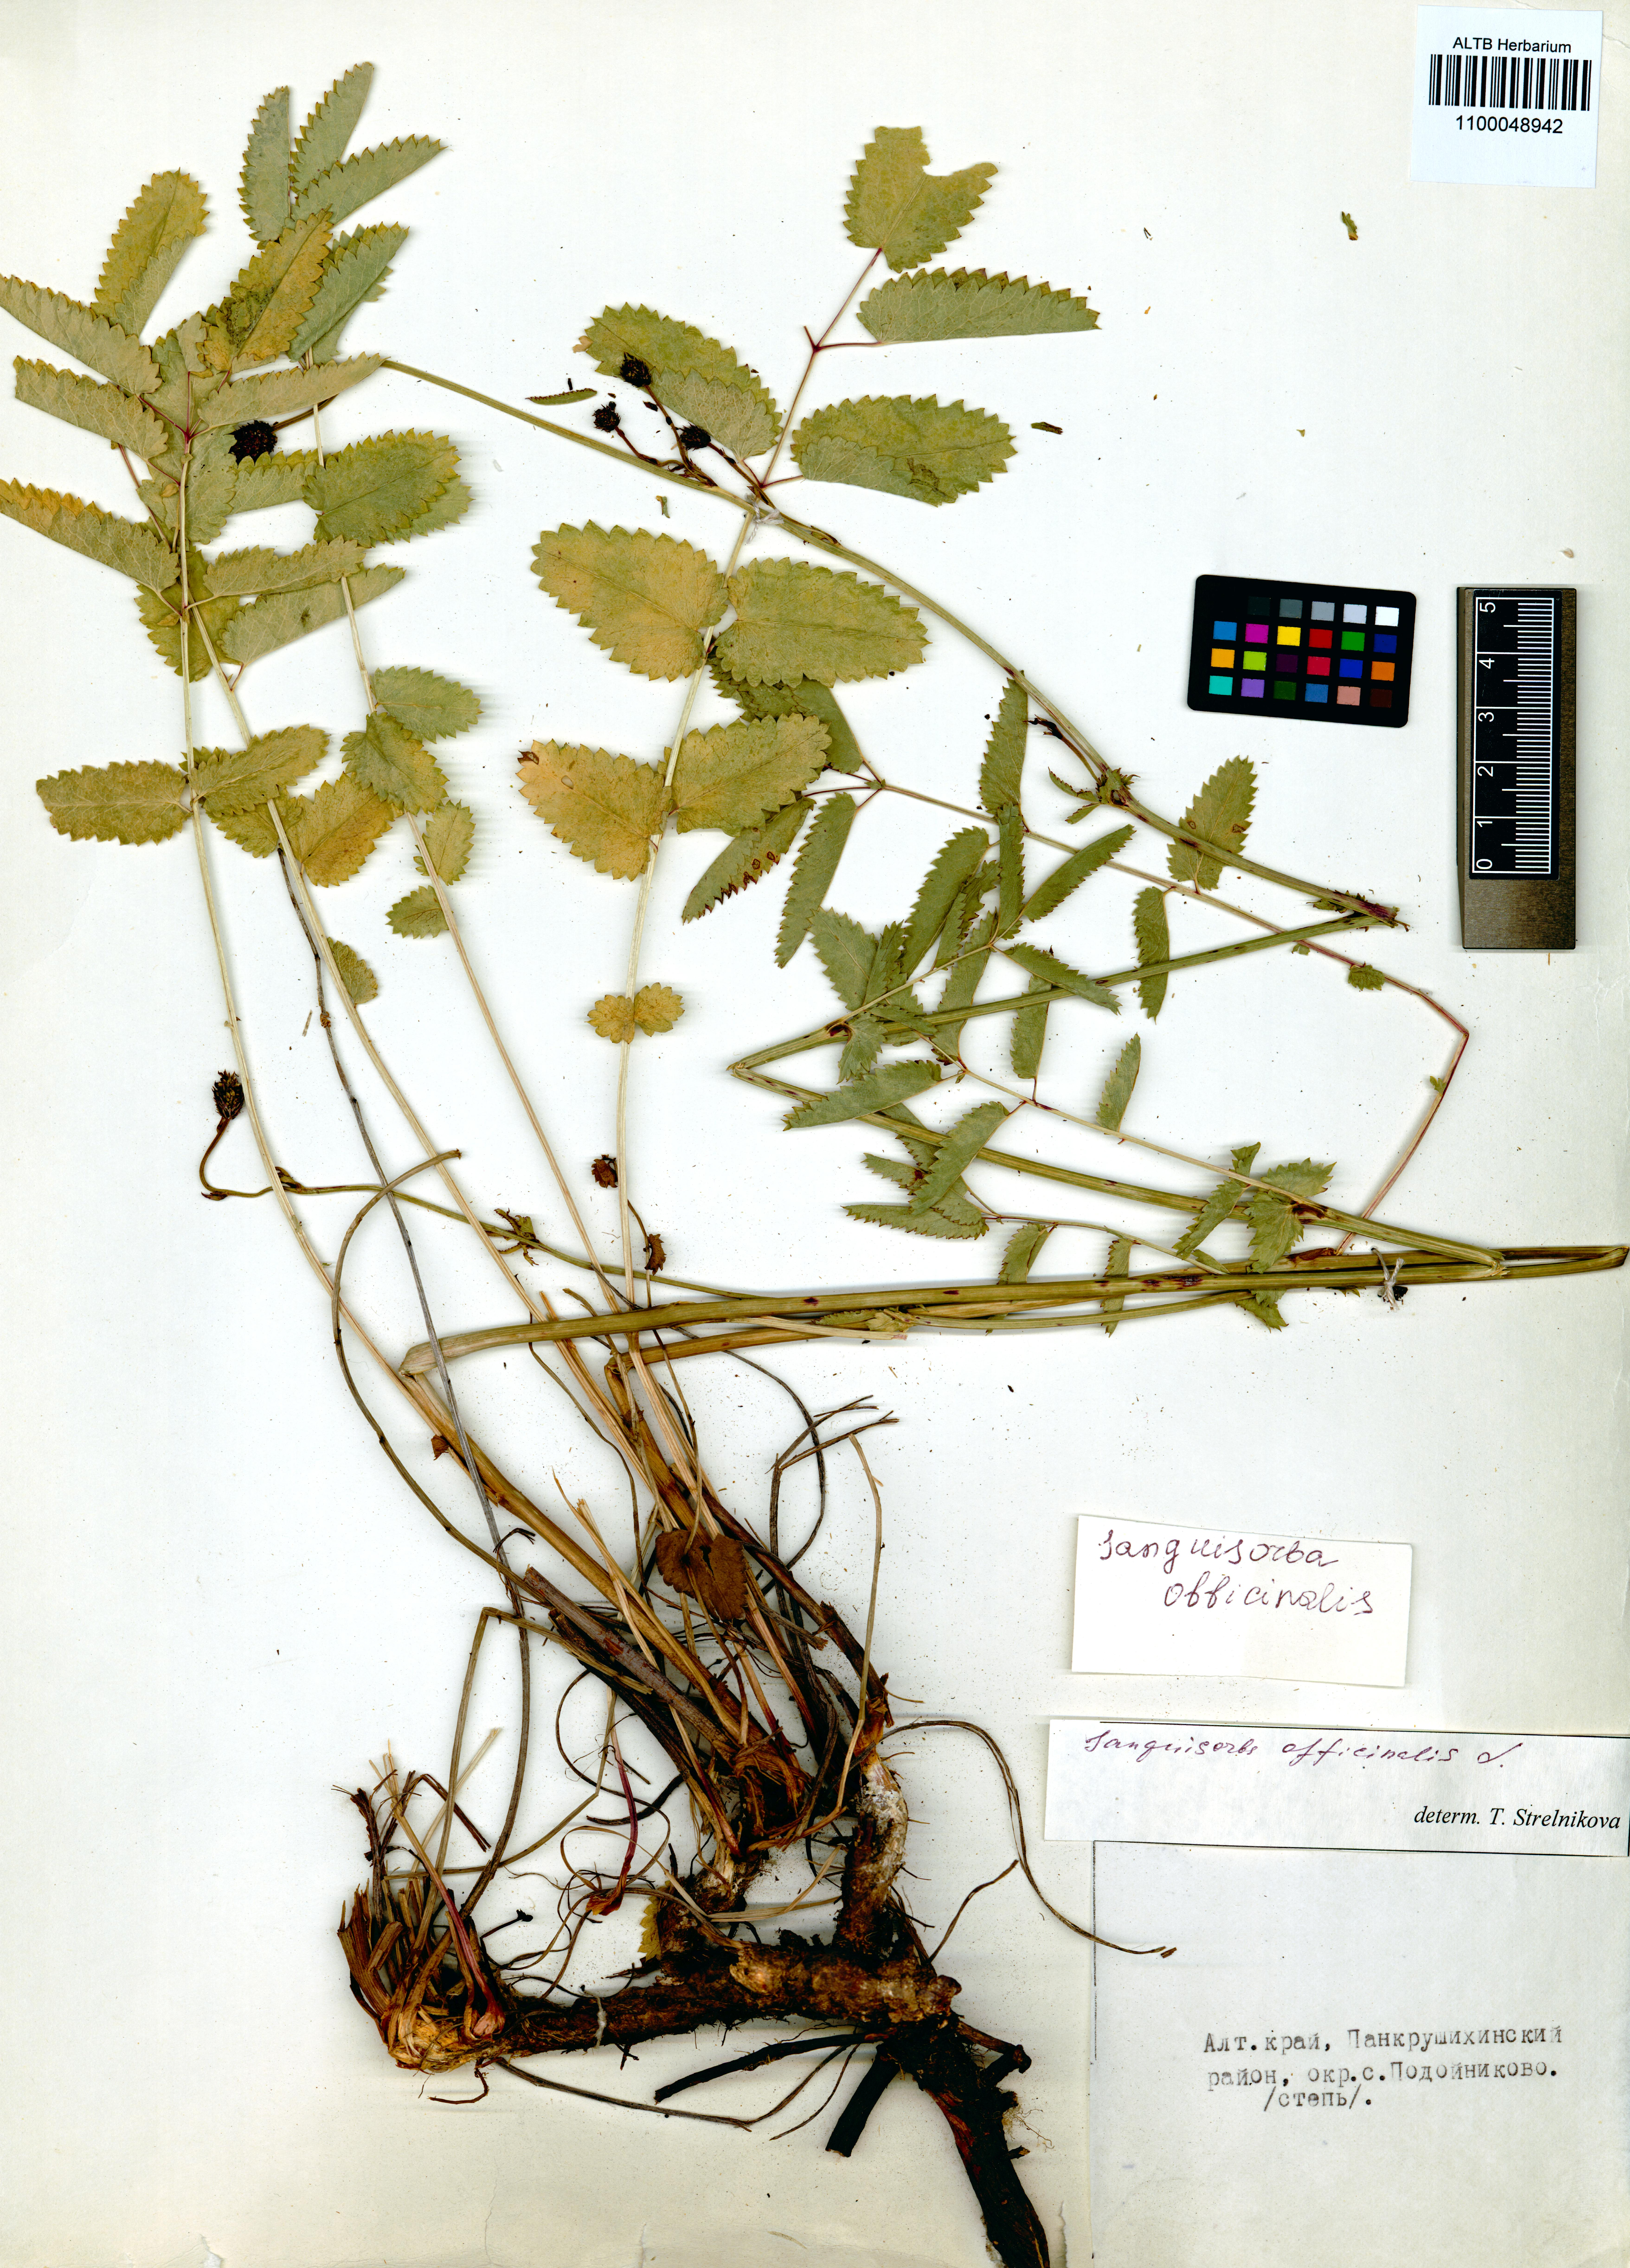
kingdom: Plantae
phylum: Tracheophyta
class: Magnoliopsida
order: Rosales
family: Rosaceae
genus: Sanguisorba
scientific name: Sanguisorba officinalis
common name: Great burnet
